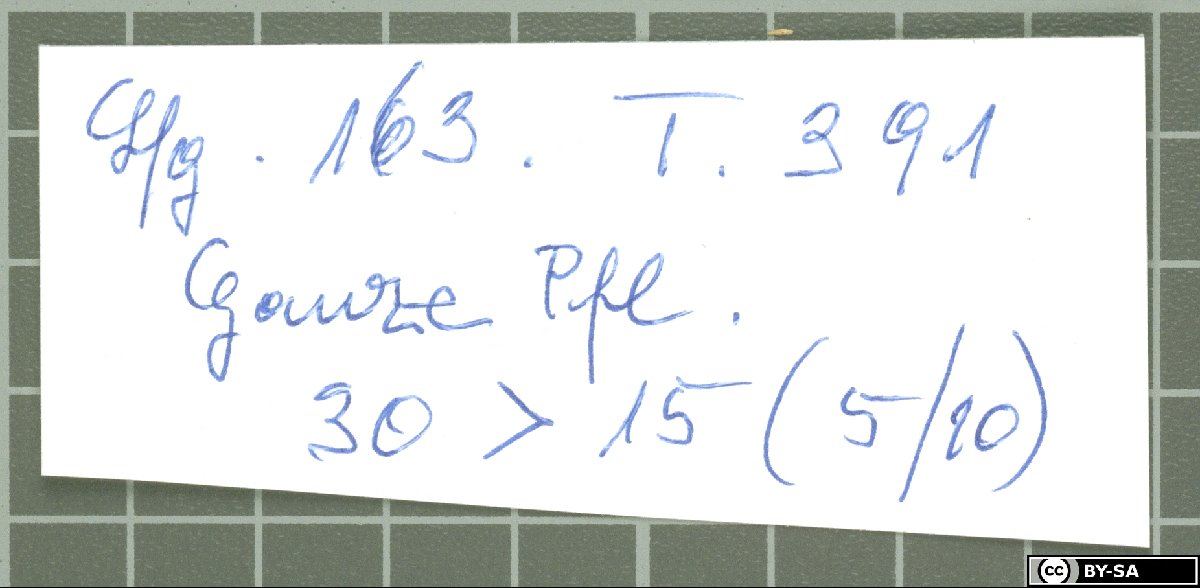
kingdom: Plantae
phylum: Tracheophyta
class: Magnoliopsida
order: Caryophyllales
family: Caryophyllaceae
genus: Dianthus
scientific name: Dianthus longivaginatus
